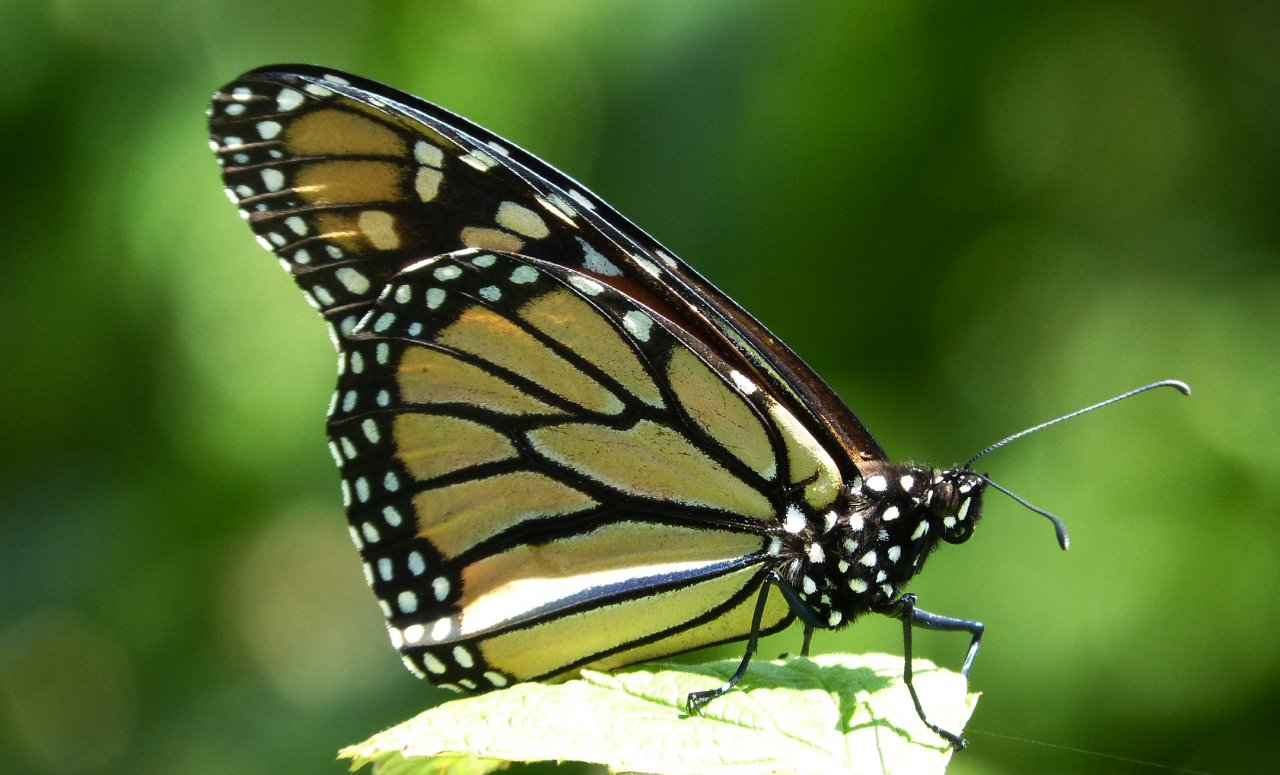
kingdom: Animalia
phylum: Arthropoda
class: Insecta
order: Lepidoptera
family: Nymphalidae
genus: Danaus
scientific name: Danaus plexippus
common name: Monarch
